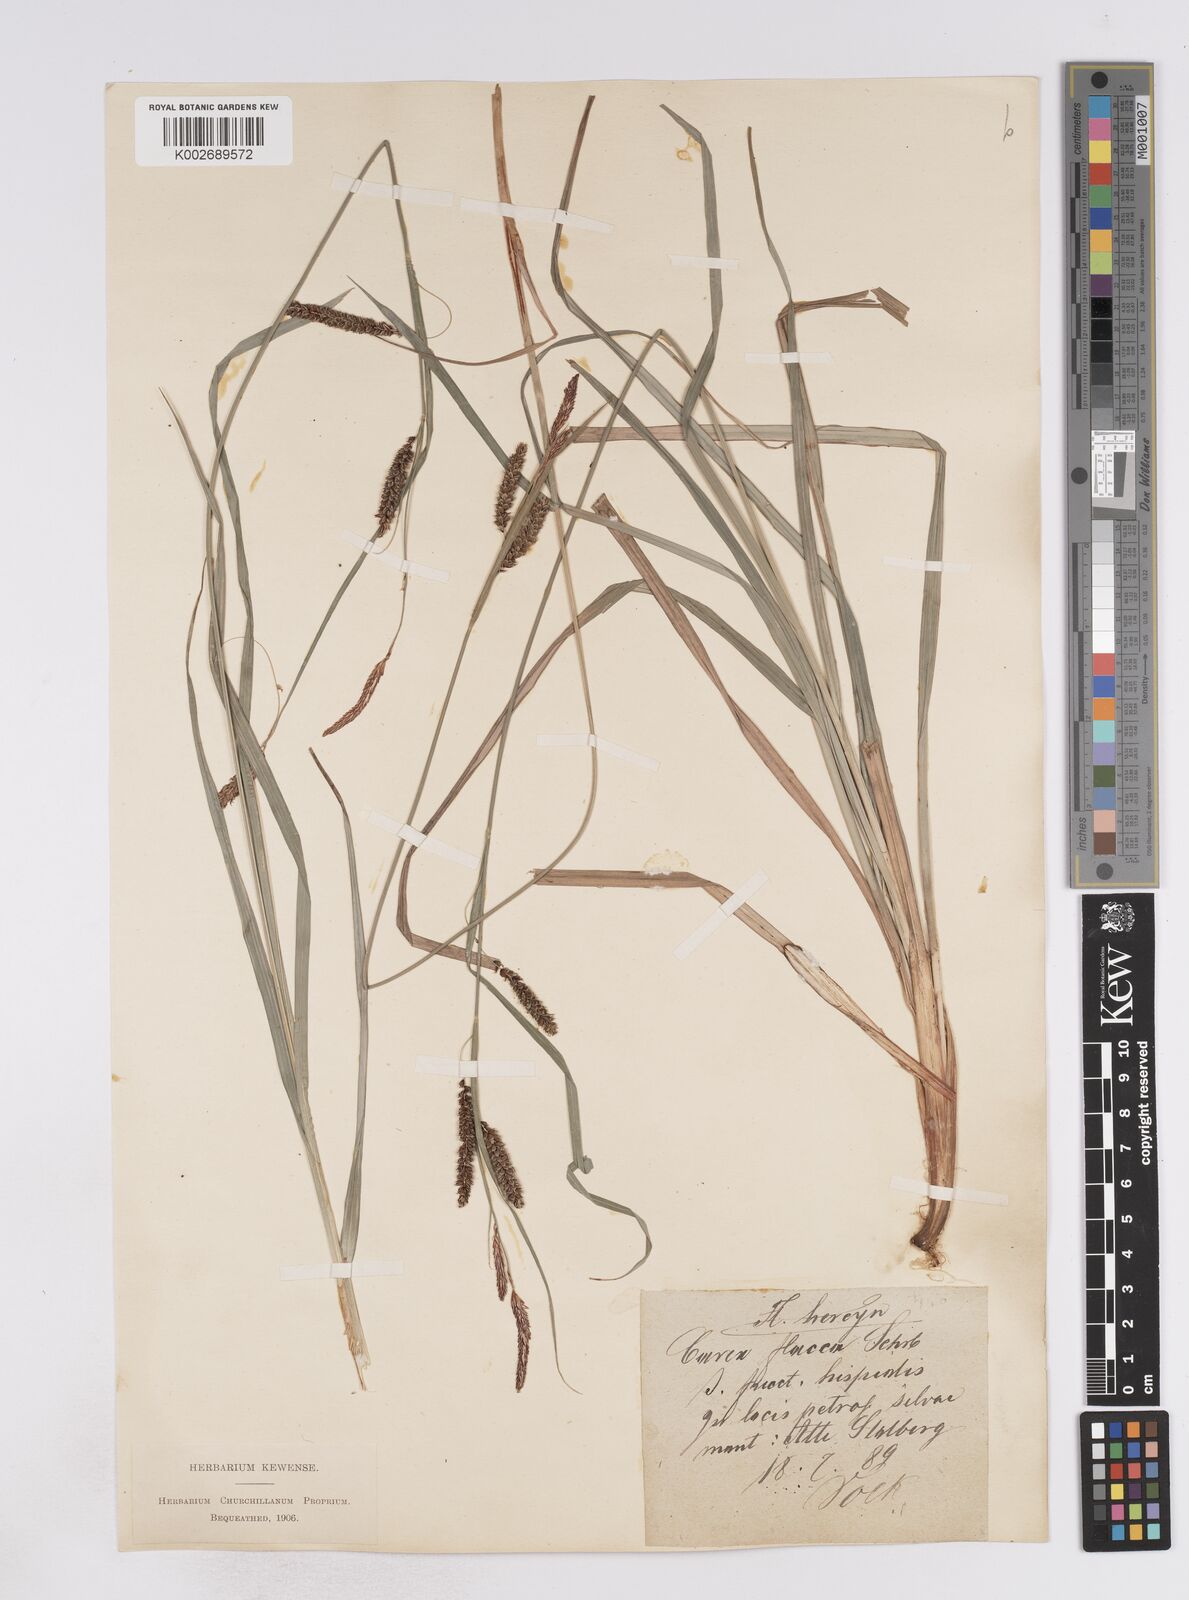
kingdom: Plantae
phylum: Tracheophyta
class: Liliopsida
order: Poales
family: Cyperaceae
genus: Carex
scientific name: Carex flacca
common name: Glaucous sedge
